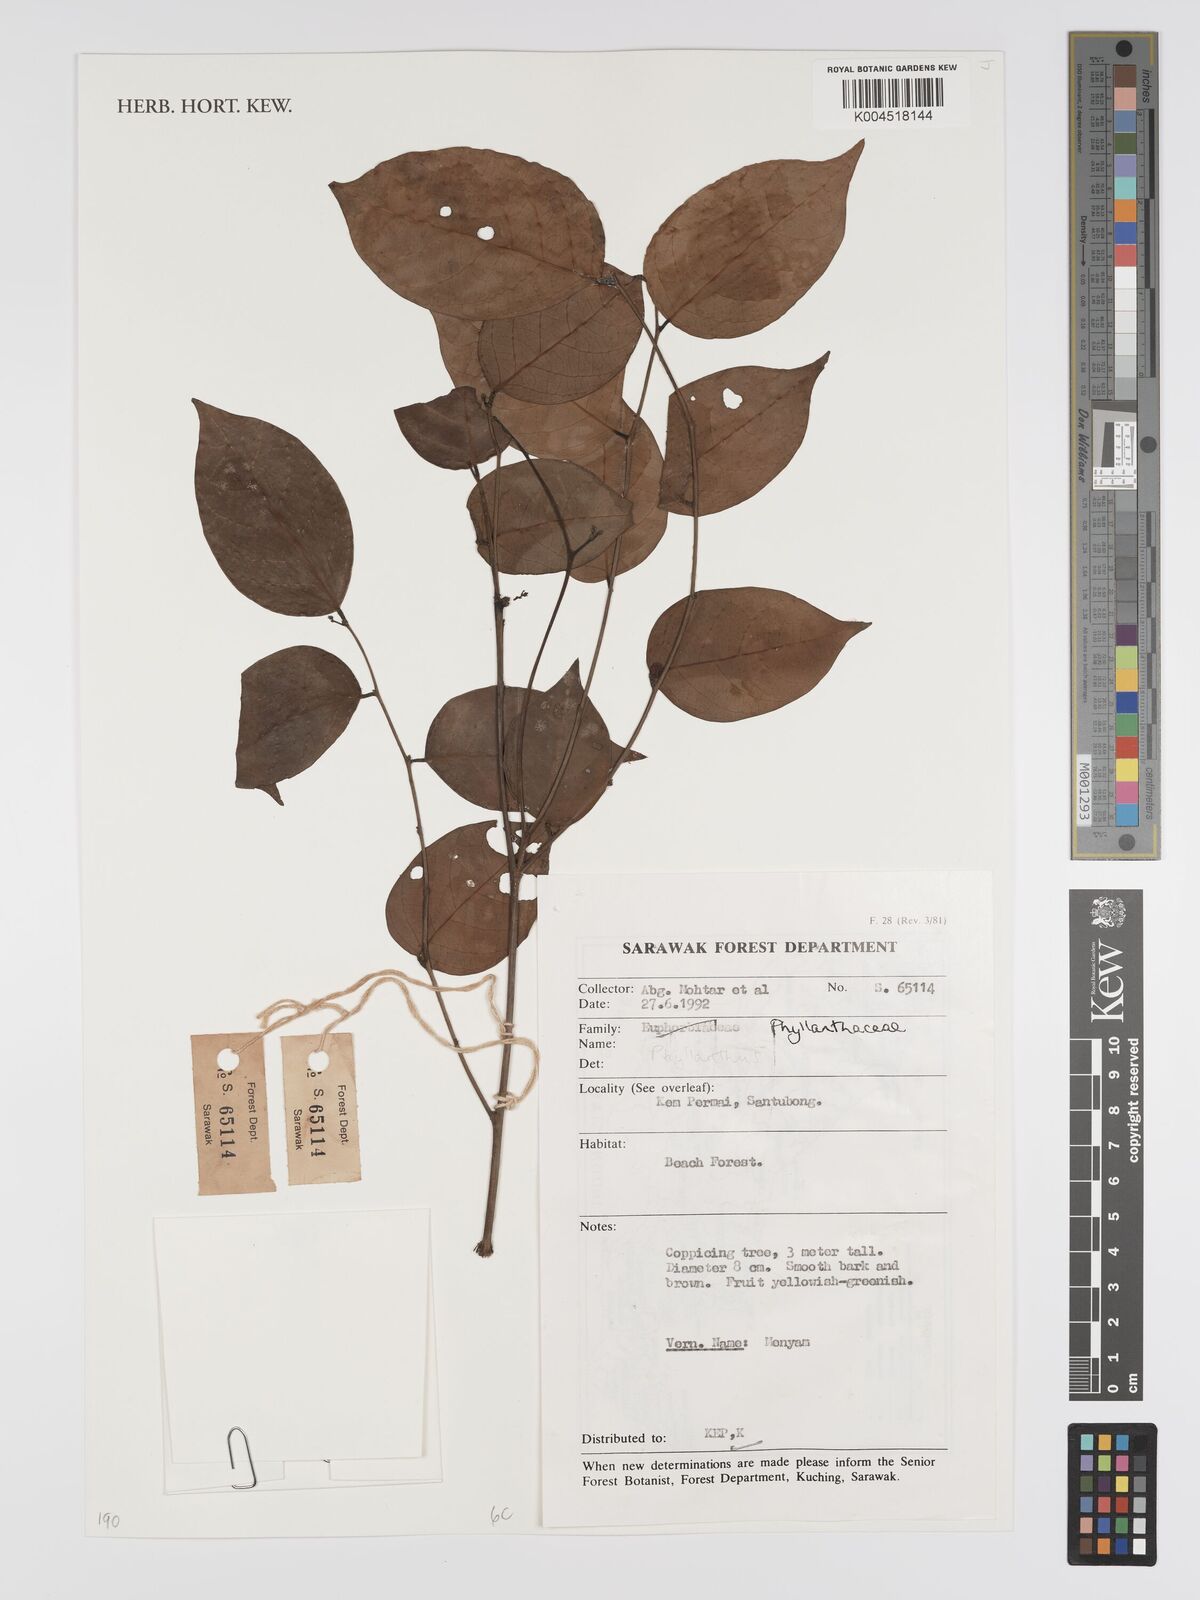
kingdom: Plantae
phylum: Tracheophyta
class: Magnoliopsida
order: Malpighiales
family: Phyllanthaceae
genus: Phyllanthus
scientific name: Phyllanthus
